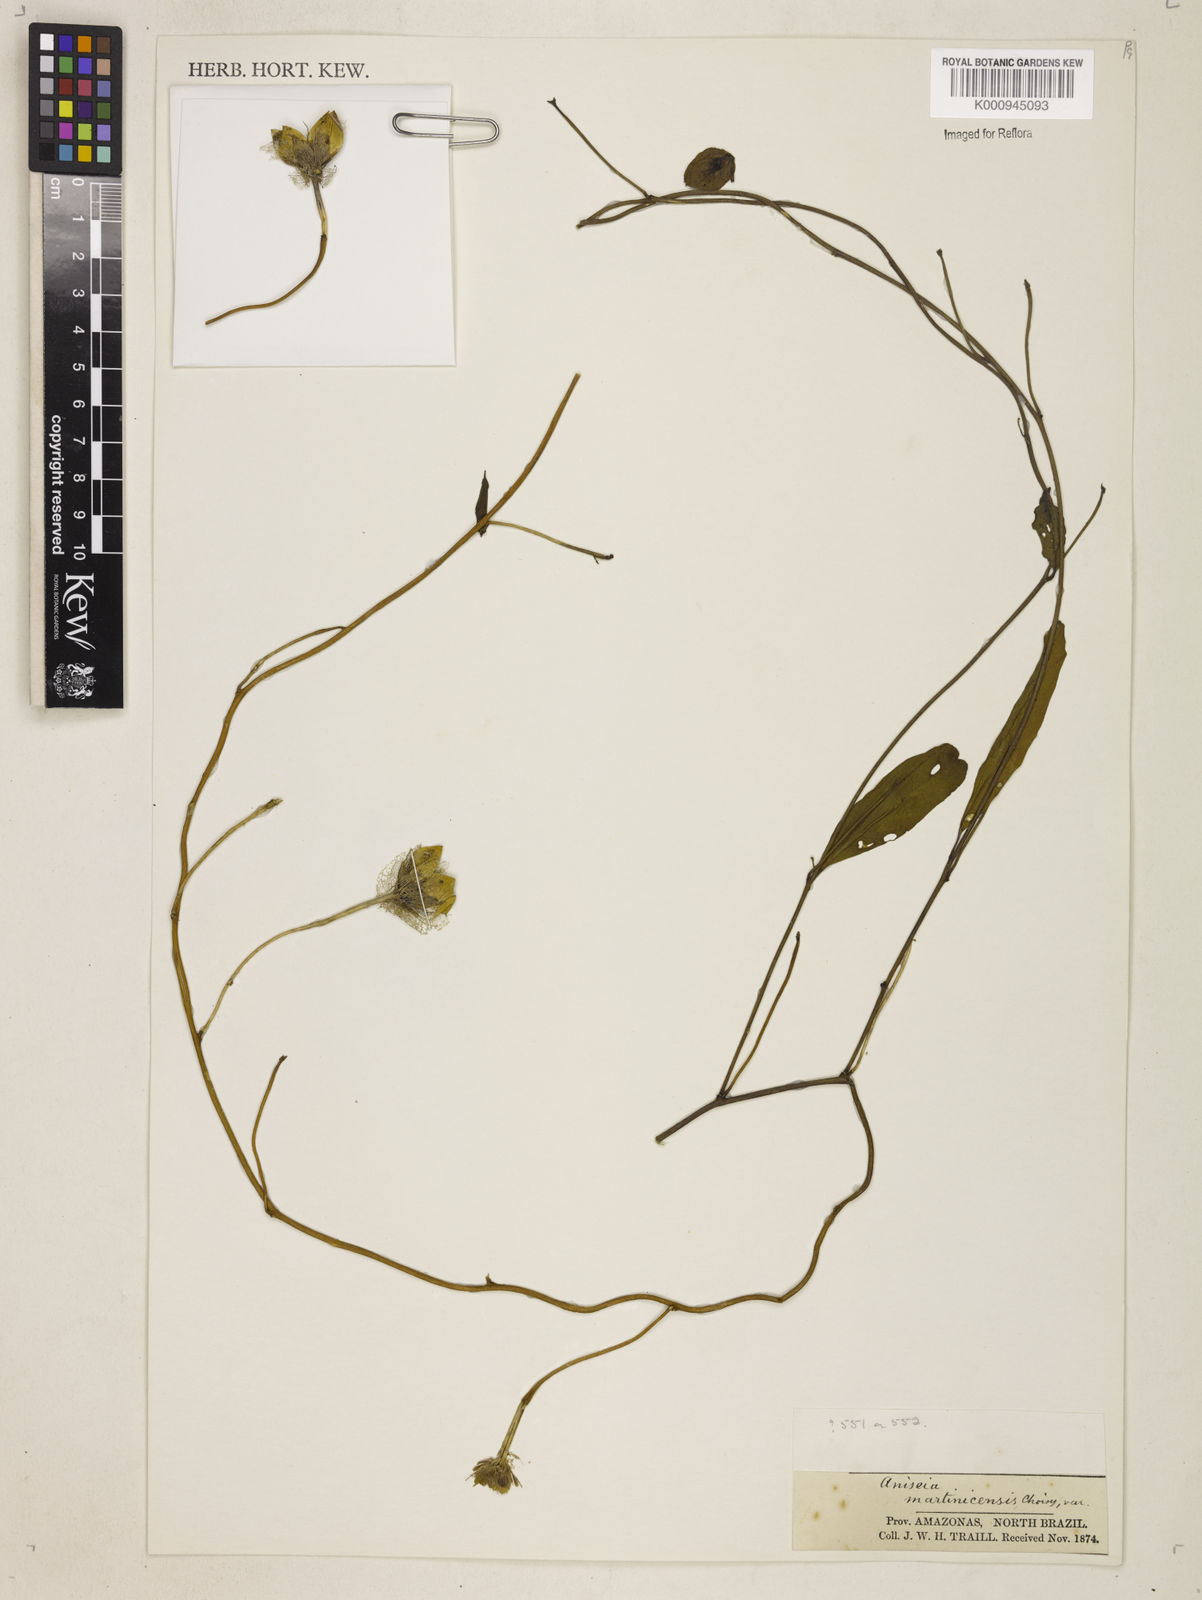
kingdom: Plantae
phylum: Tracheophyta
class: Magnoliopsida
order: Solanales
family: Convolvulaceae
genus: Aniseia
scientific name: Aniseia martinicensis
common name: Kulayadambu
